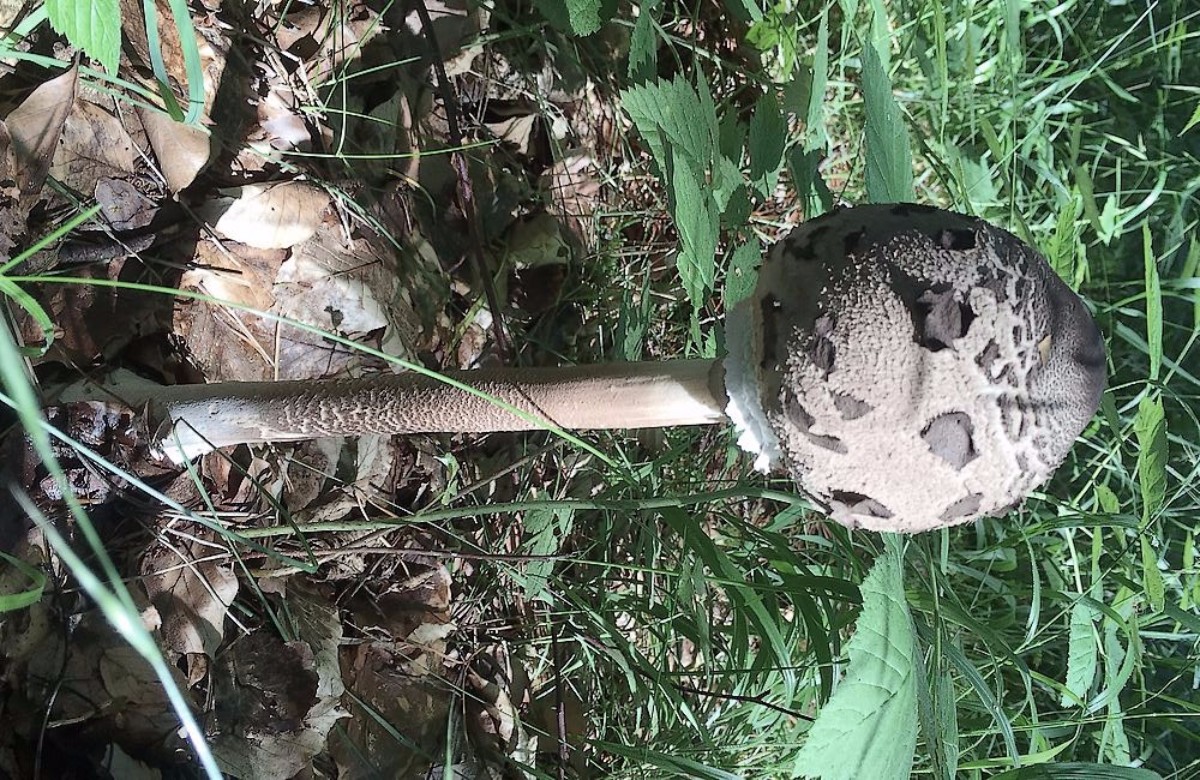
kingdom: Fungi
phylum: Basidiomycota
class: Agaricomycetes
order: Agaricales
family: Agaricaceae
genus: Macrolepiota
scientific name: Macrolepiota procera
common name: stor kæmpeparasolhat
